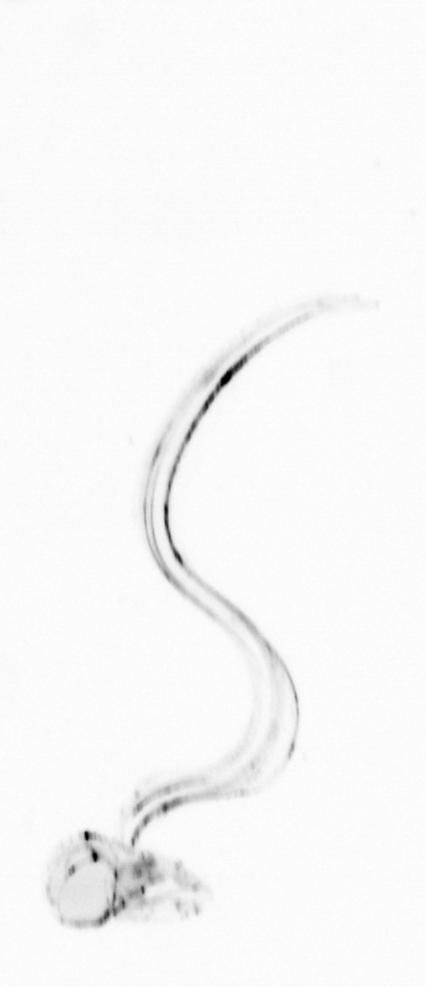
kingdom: Animalia
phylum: Chordata
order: Copelata
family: Fritillariidae
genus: Appendicularia
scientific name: Appendicularia
